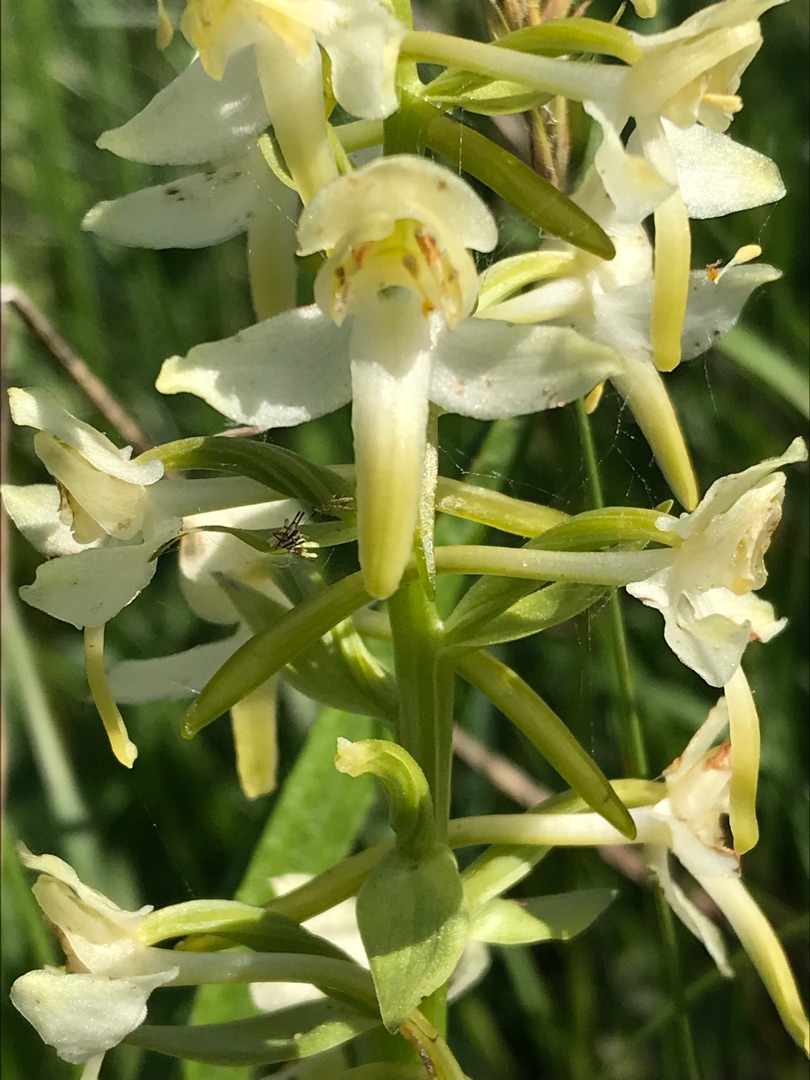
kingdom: Plantae
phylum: Tracheophyta
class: Liliopsida
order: Asparagales
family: Orchidaceae
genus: Platanthera
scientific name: Platanthera chlorantha
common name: Skov-gøgelilje
